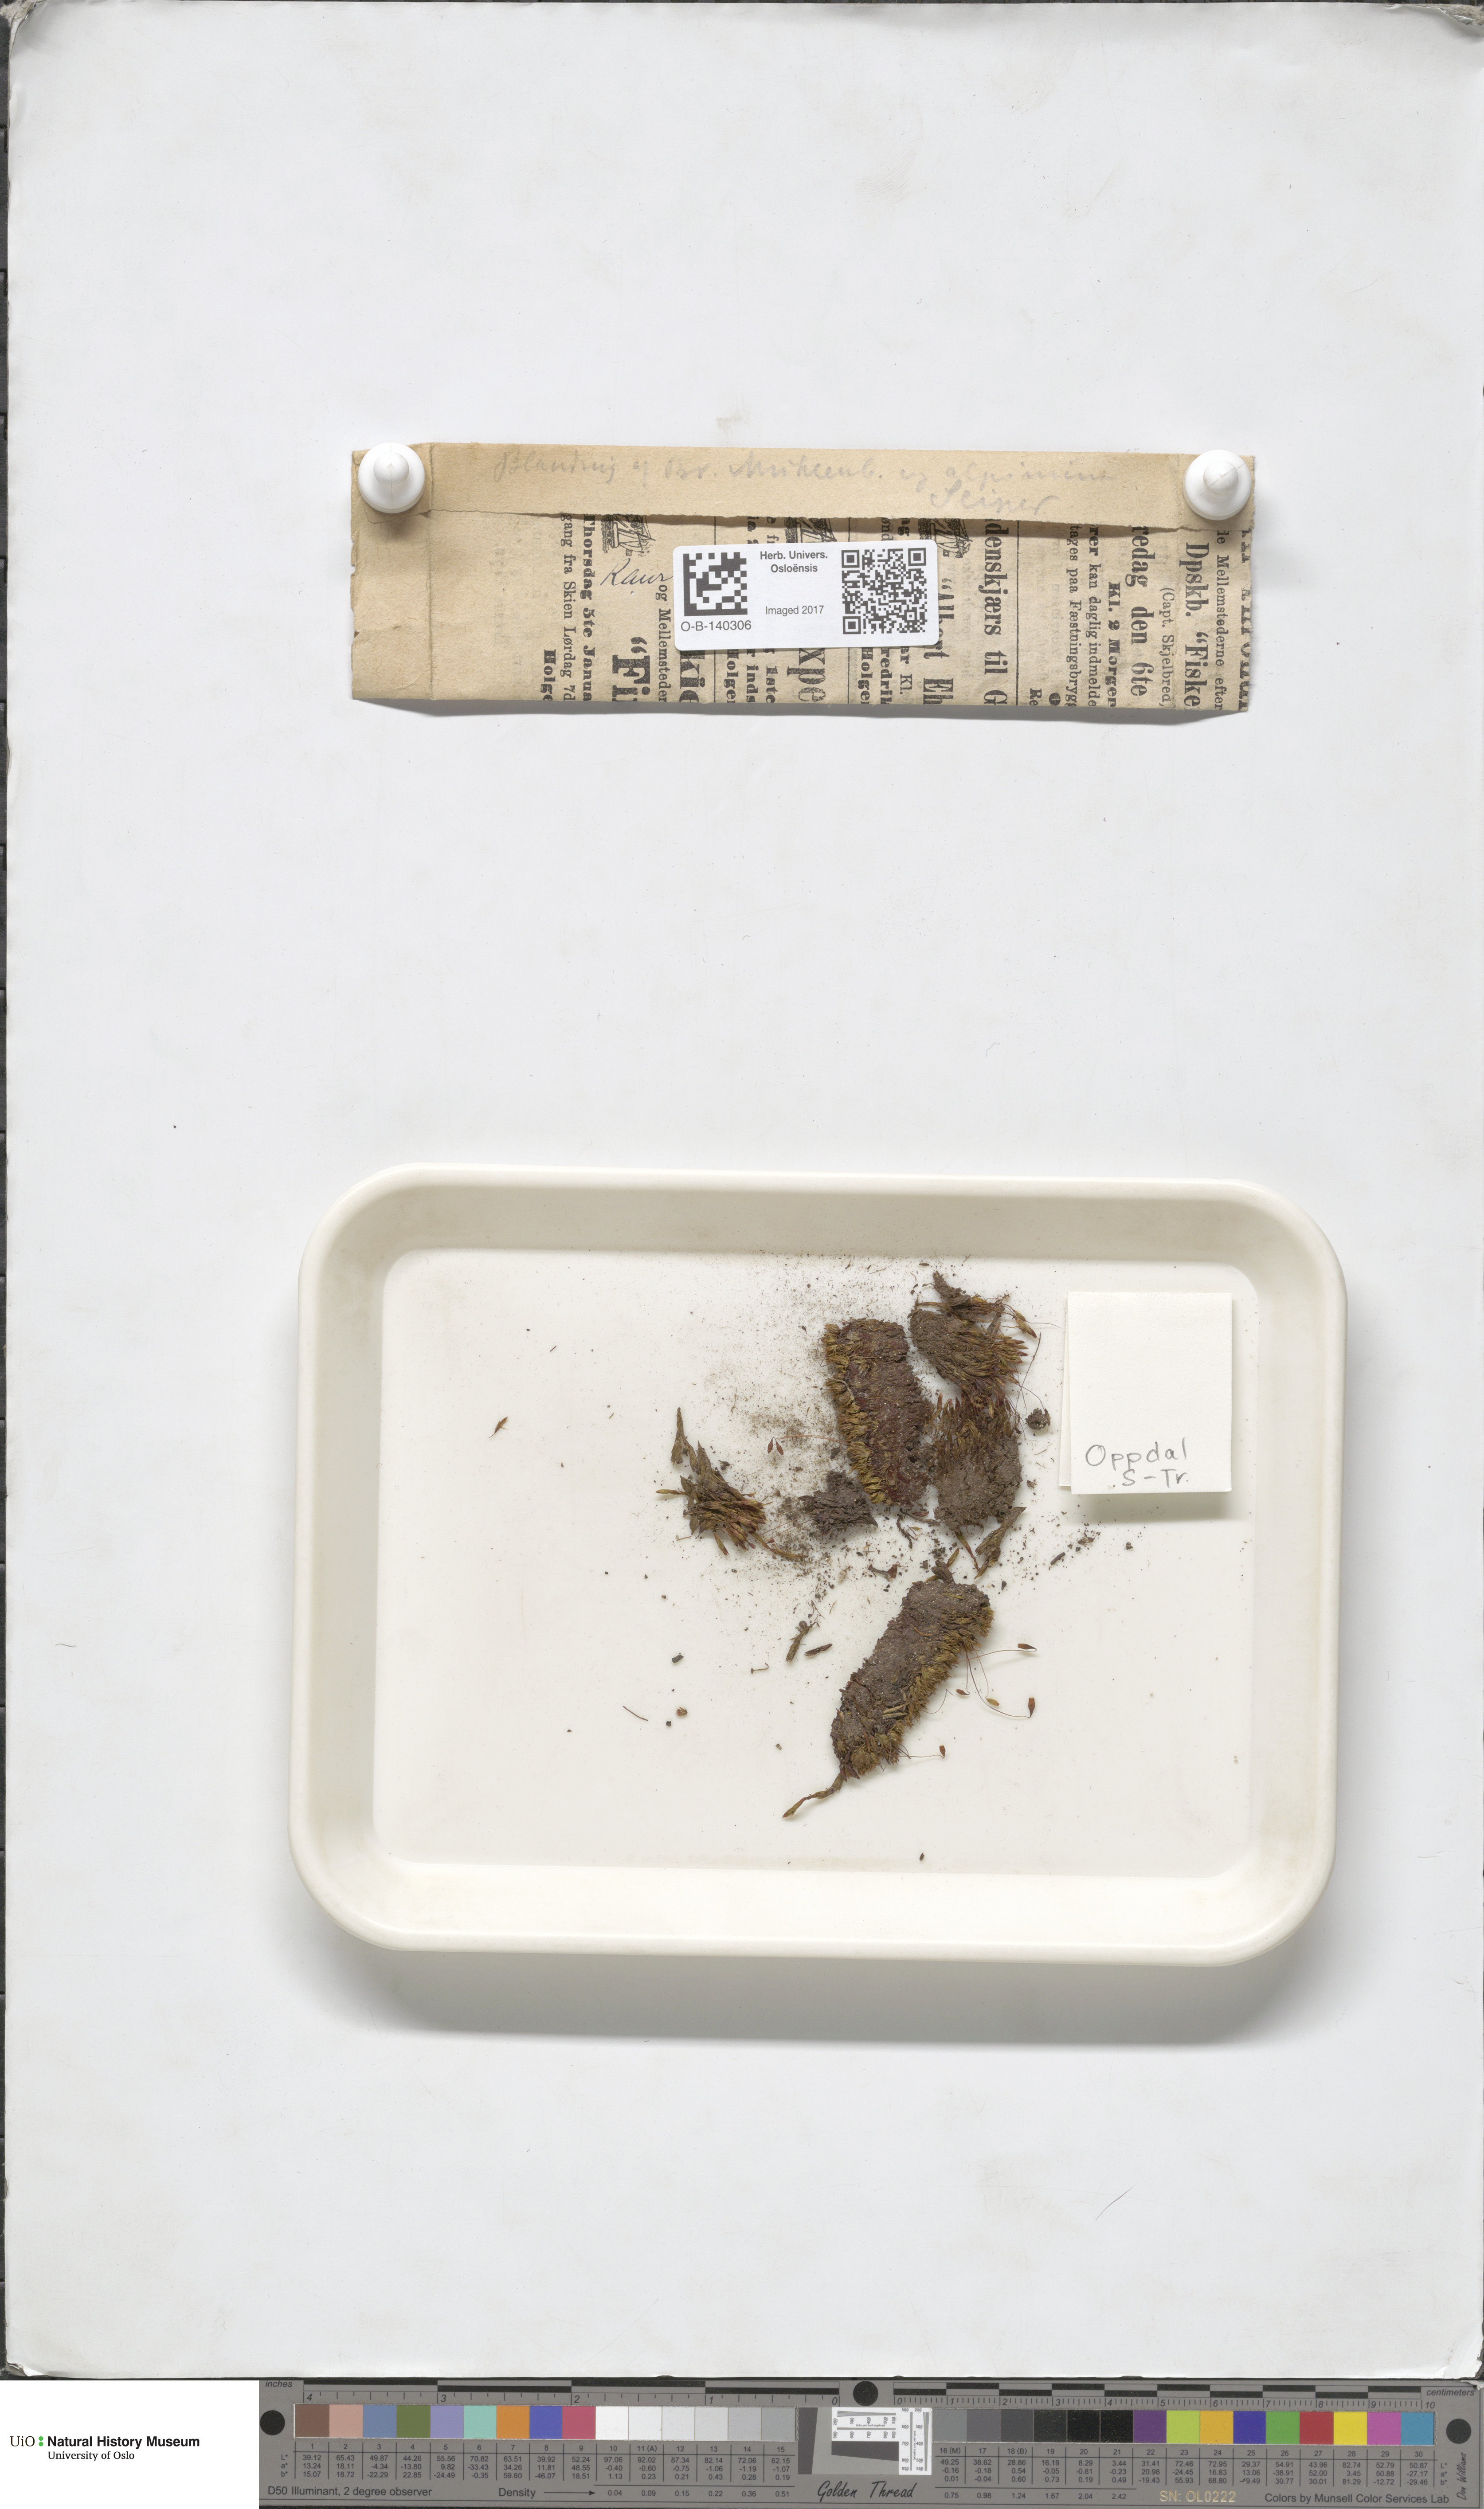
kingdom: Plantae
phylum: Bryophyta
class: Bryopsida
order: Bryales
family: Bryaceae
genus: Imbribryum
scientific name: Imbribryum muehlenbeckii
